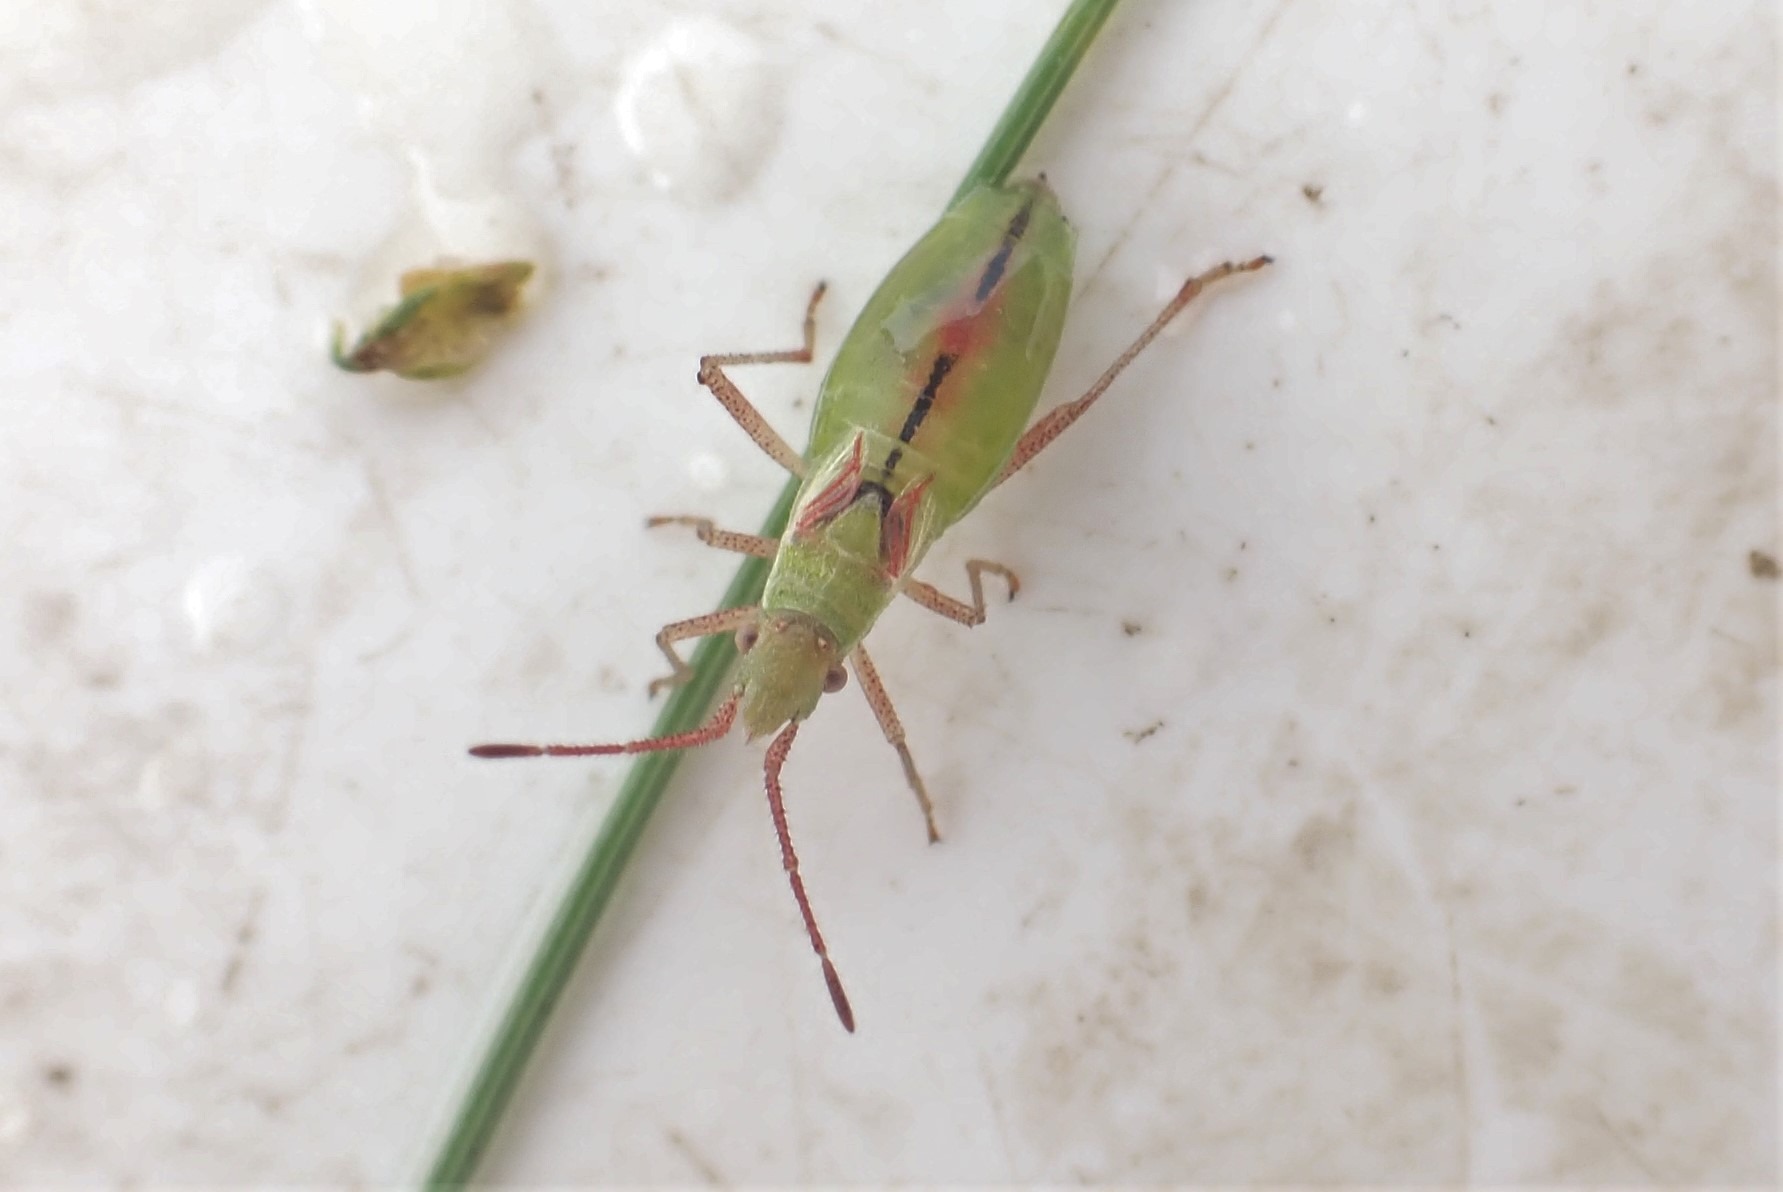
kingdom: Animalia
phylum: Arthropoda
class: Insecta
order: Hemiptera
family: Rhopalidae
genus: Myrmus
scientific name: Myrmus miriformis
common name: Lille stråtæge
